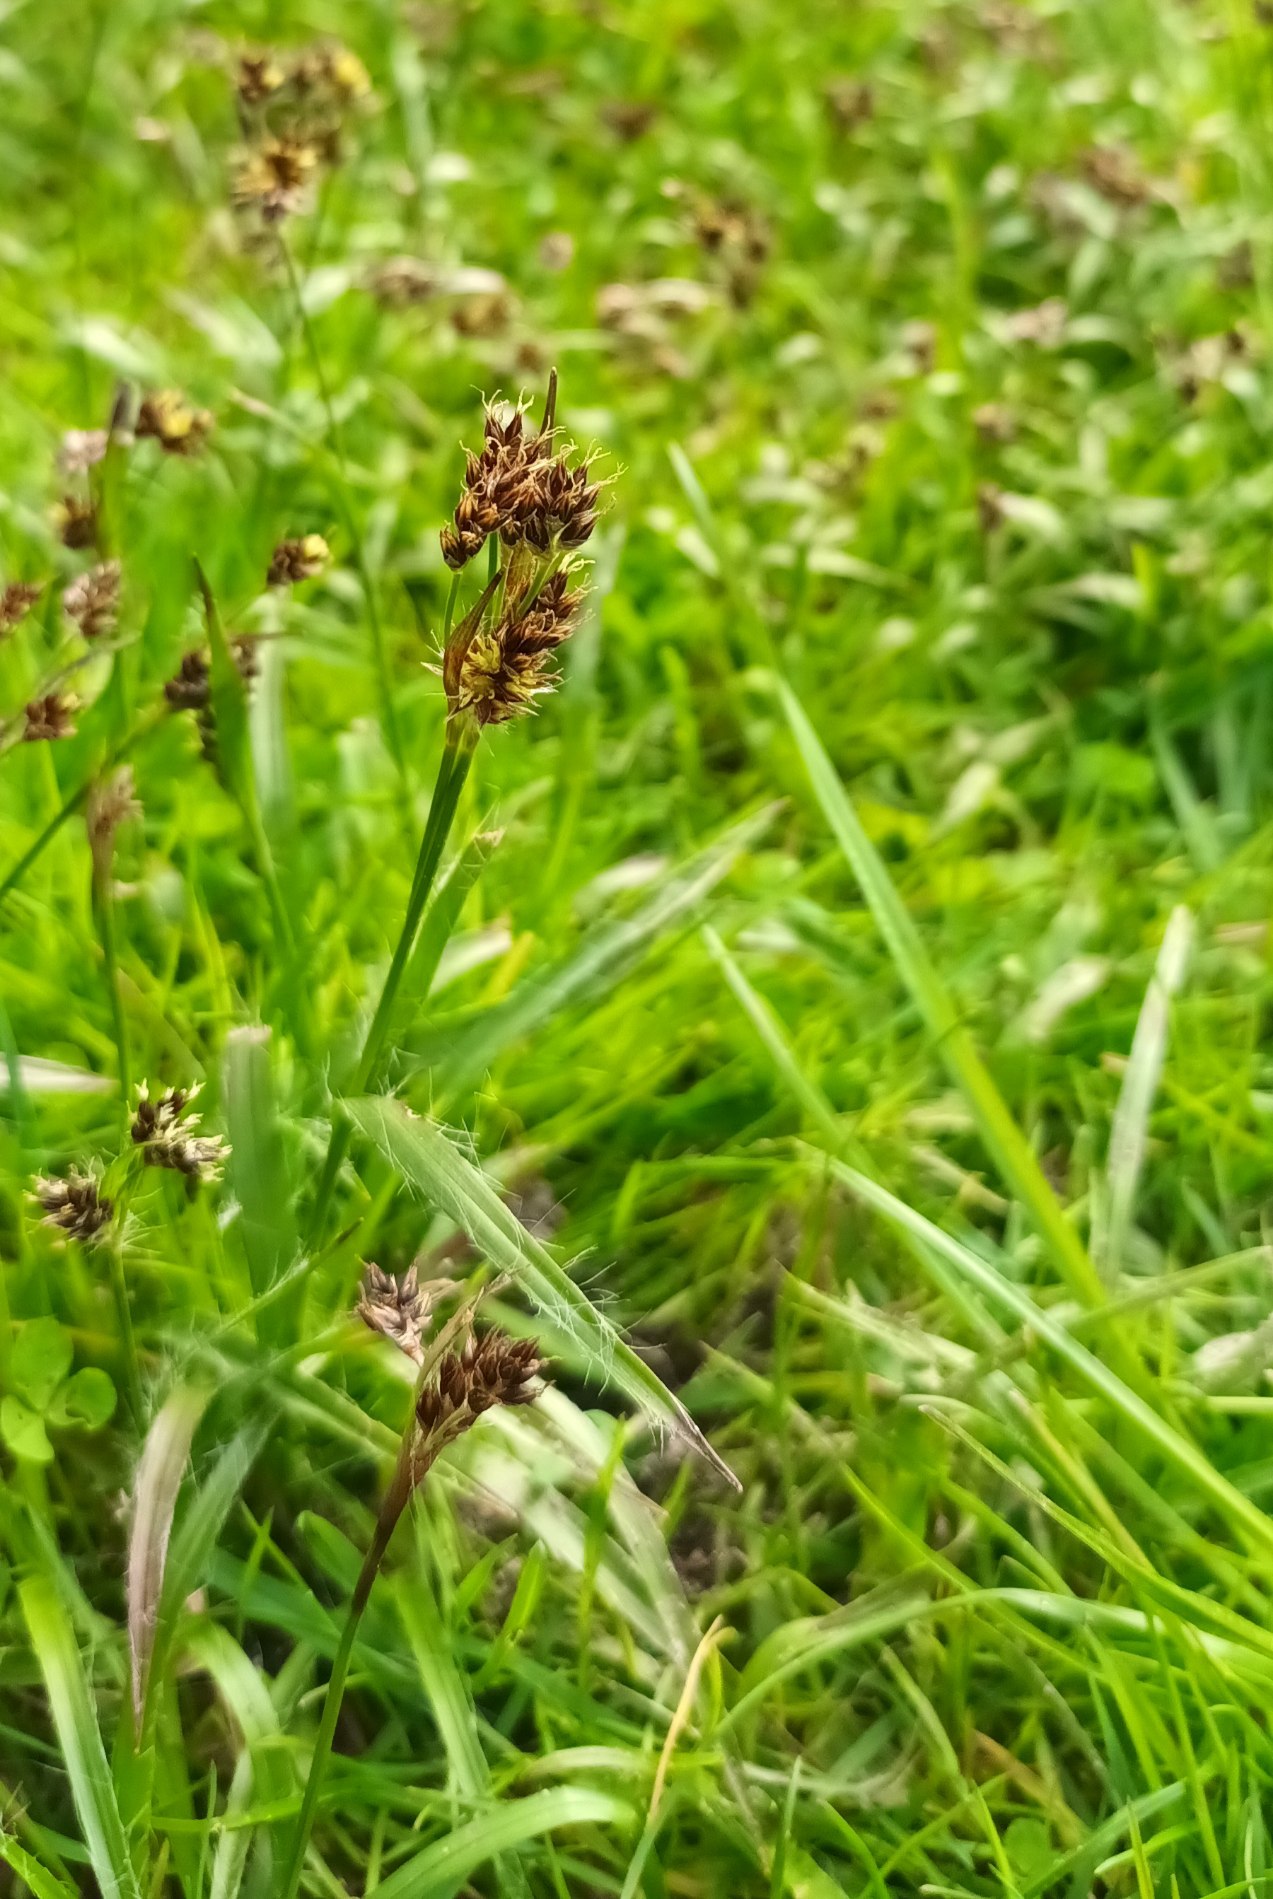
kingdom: Plantae
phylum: Tracheophyta
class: Liliopsida
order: Poales
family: Juncaceae
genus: Luzula
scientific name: Luzula campestris
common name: Mark-frytle
